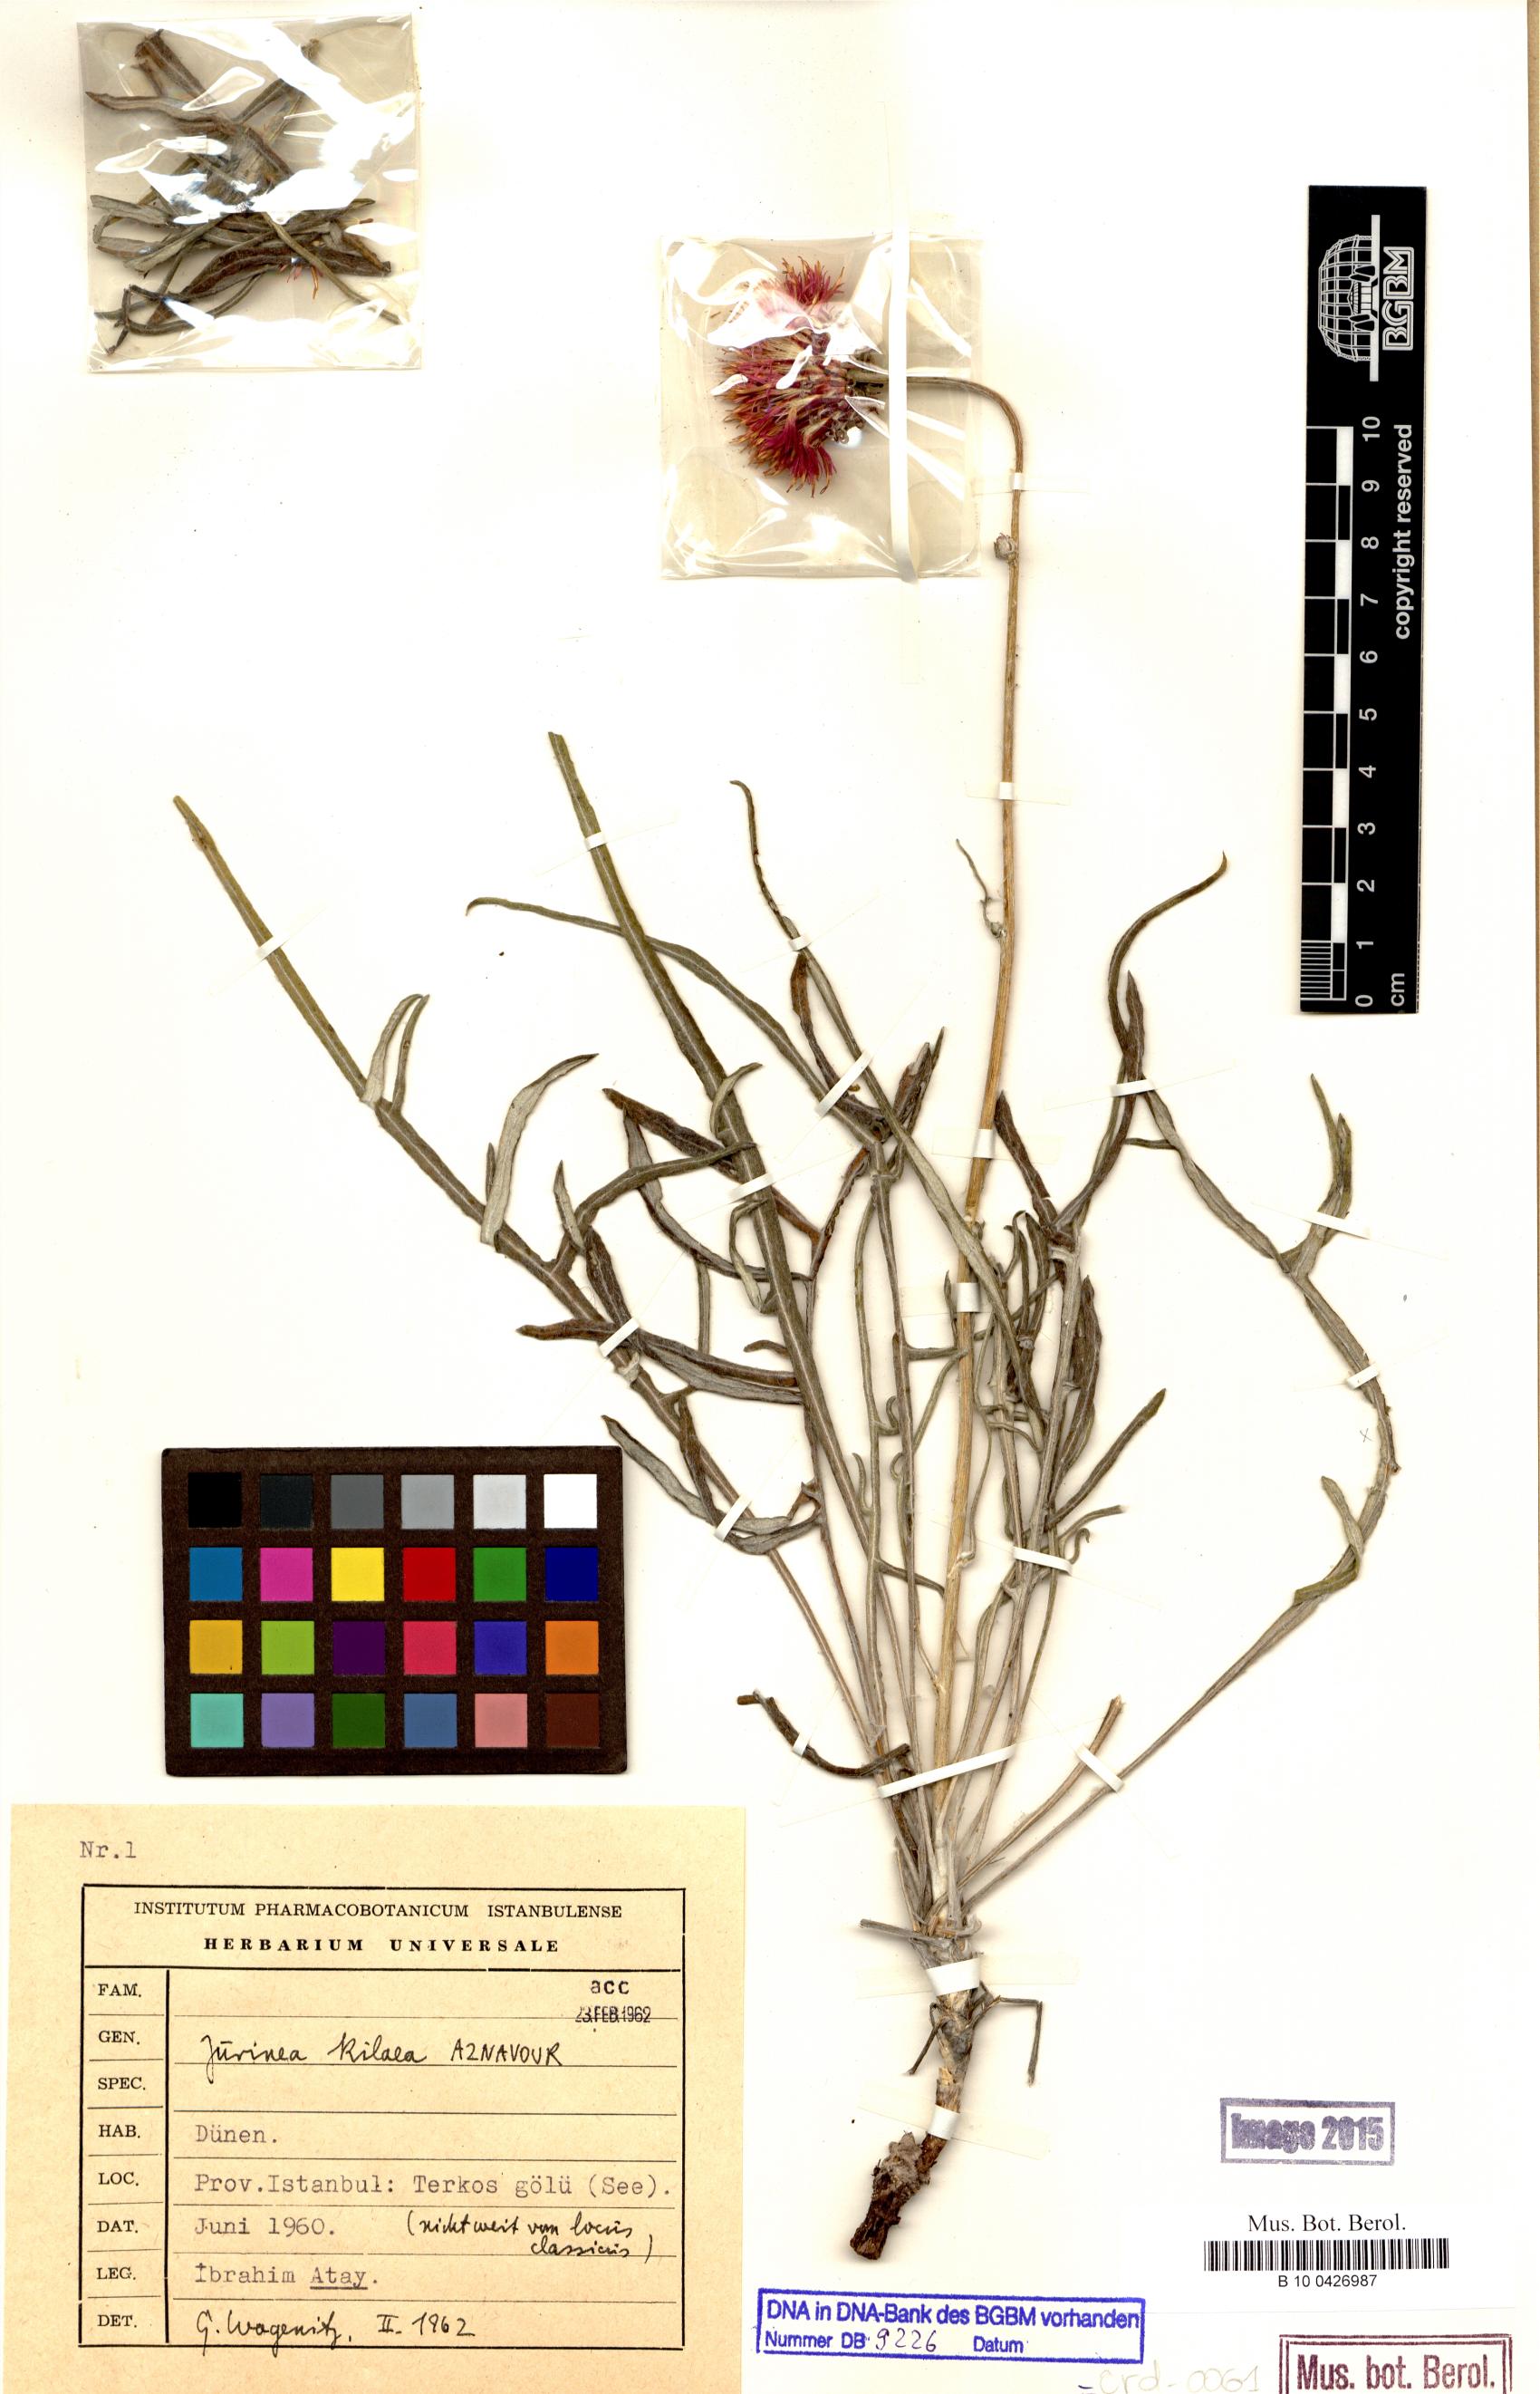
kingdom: Plantae
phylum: Tracheophyta
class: Magnoliopsida
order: Asterales
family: Asteraceae
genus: Jurinea
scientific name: Jurinea kilaea
